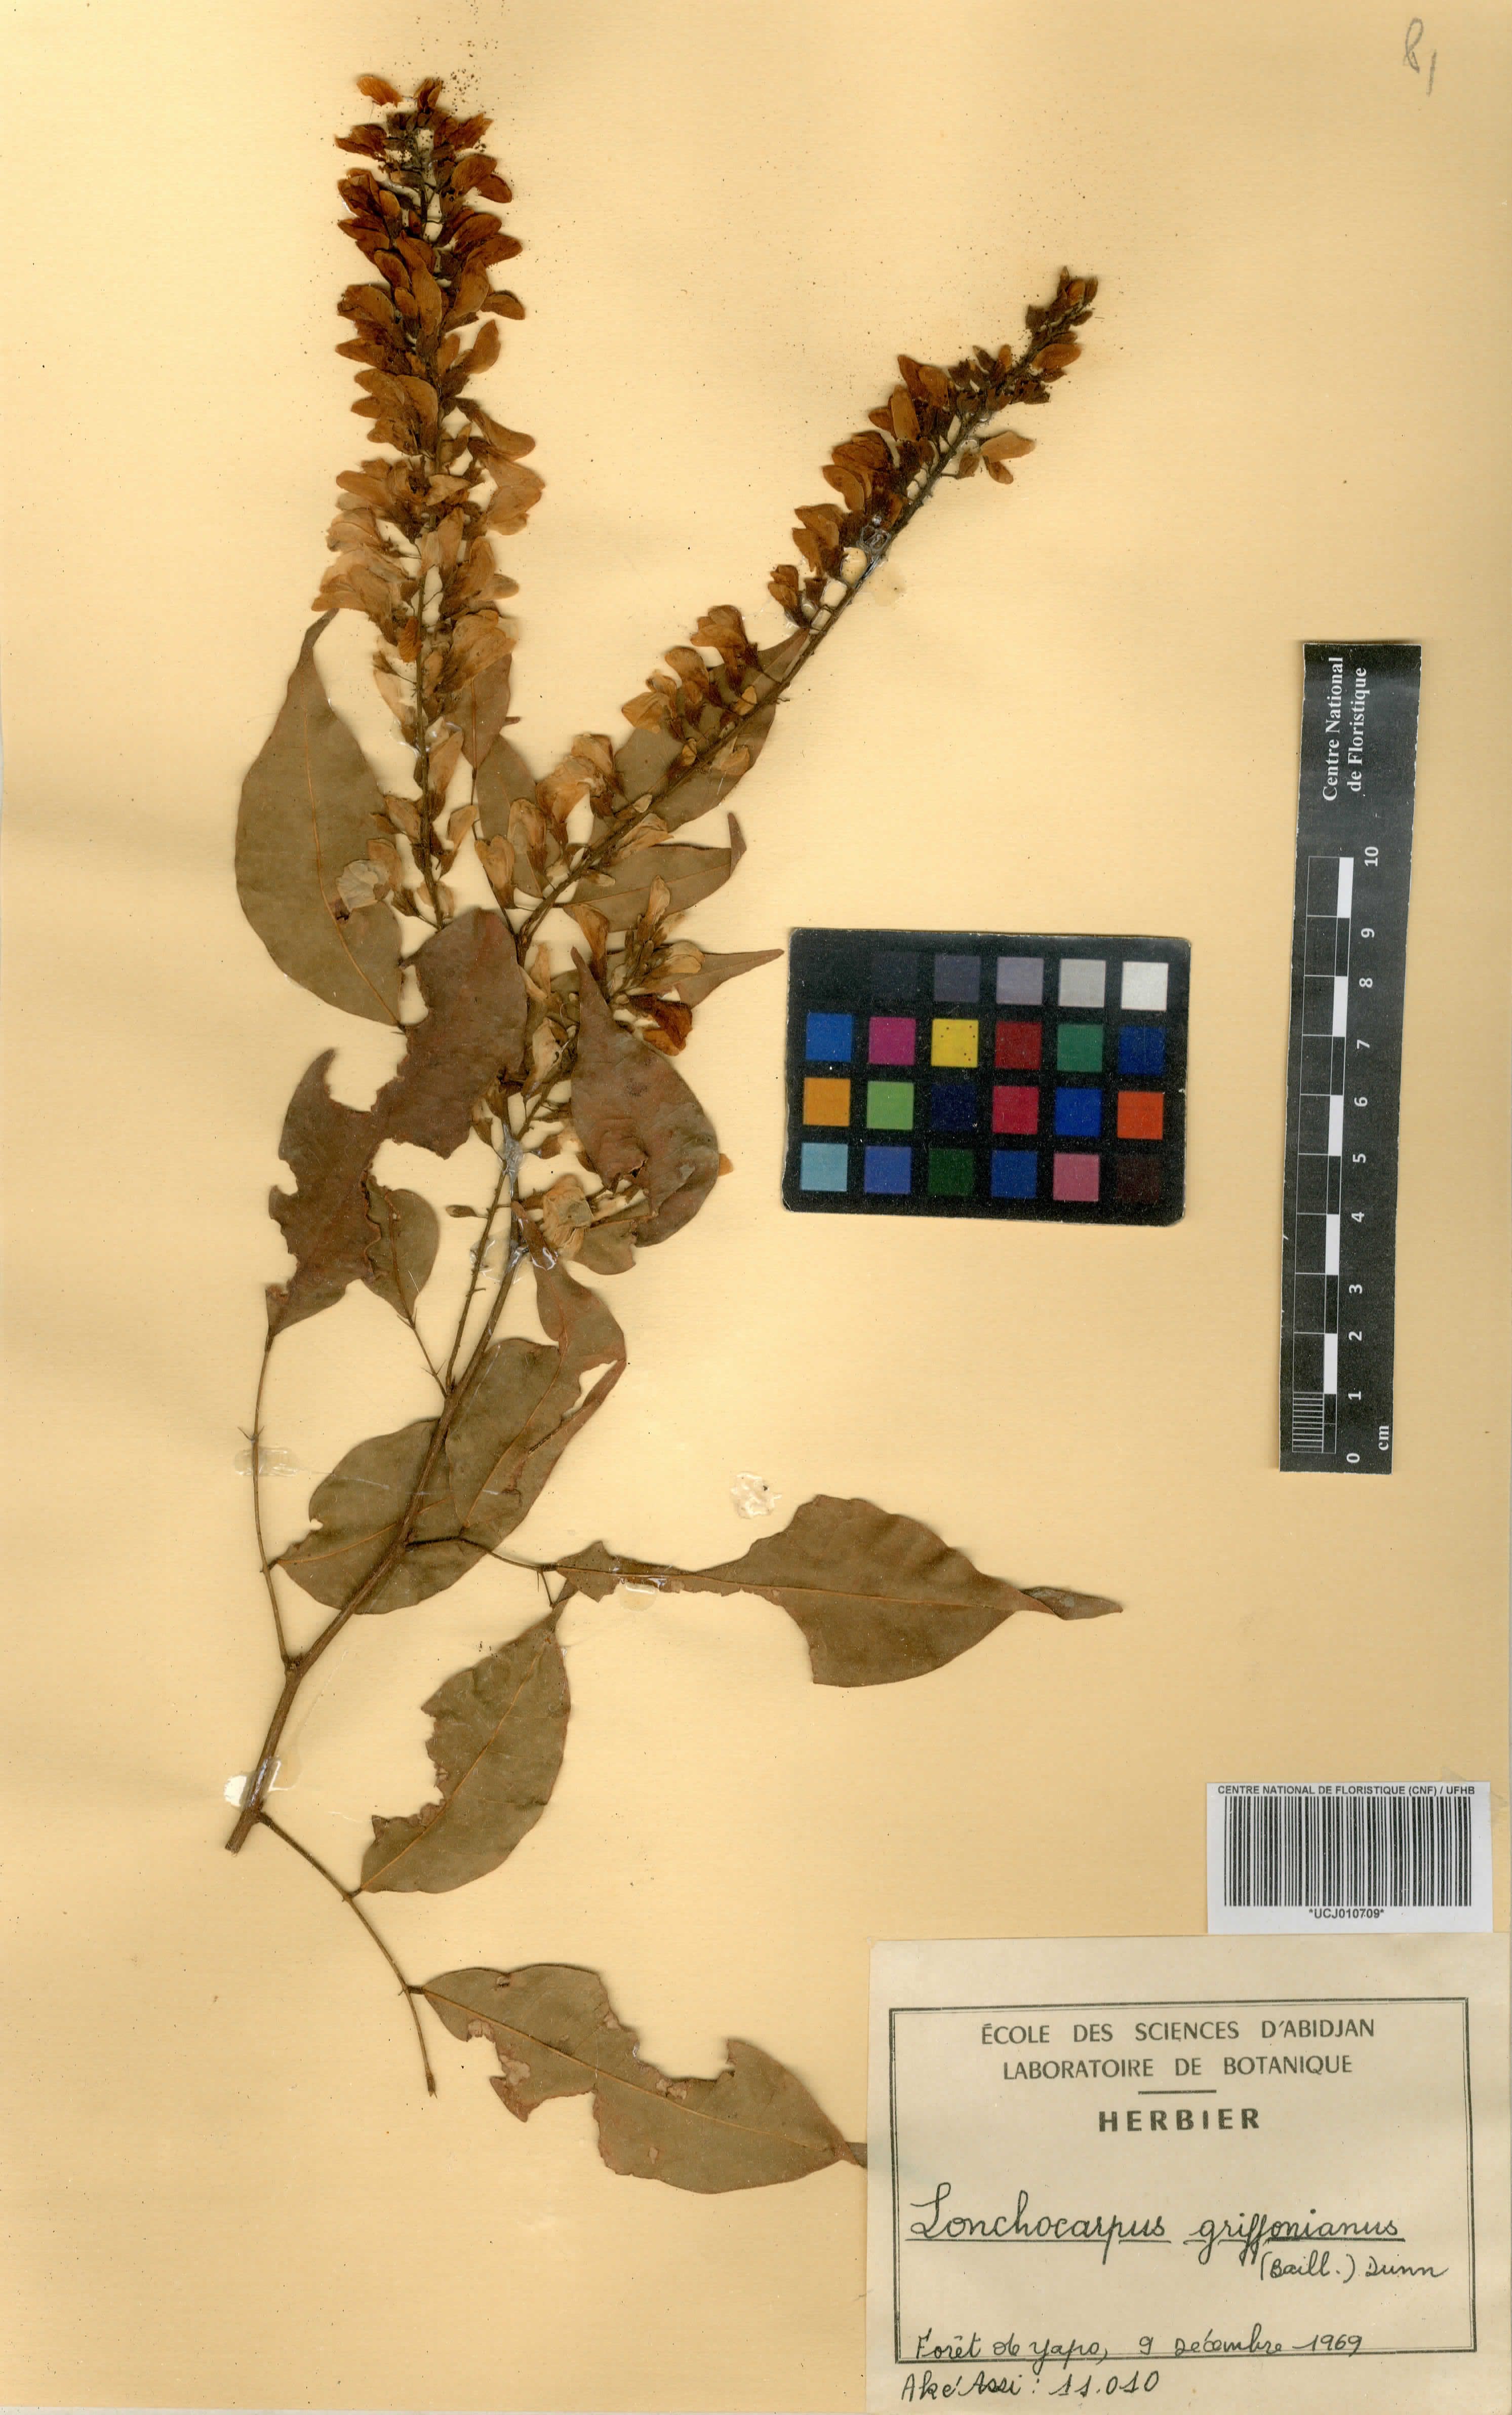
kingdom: Plantae
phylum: Tracheophyta
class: Magnoliopsida
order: Fabales
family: Fabaceae
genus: Millettia
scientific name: Millettia griffoniana
